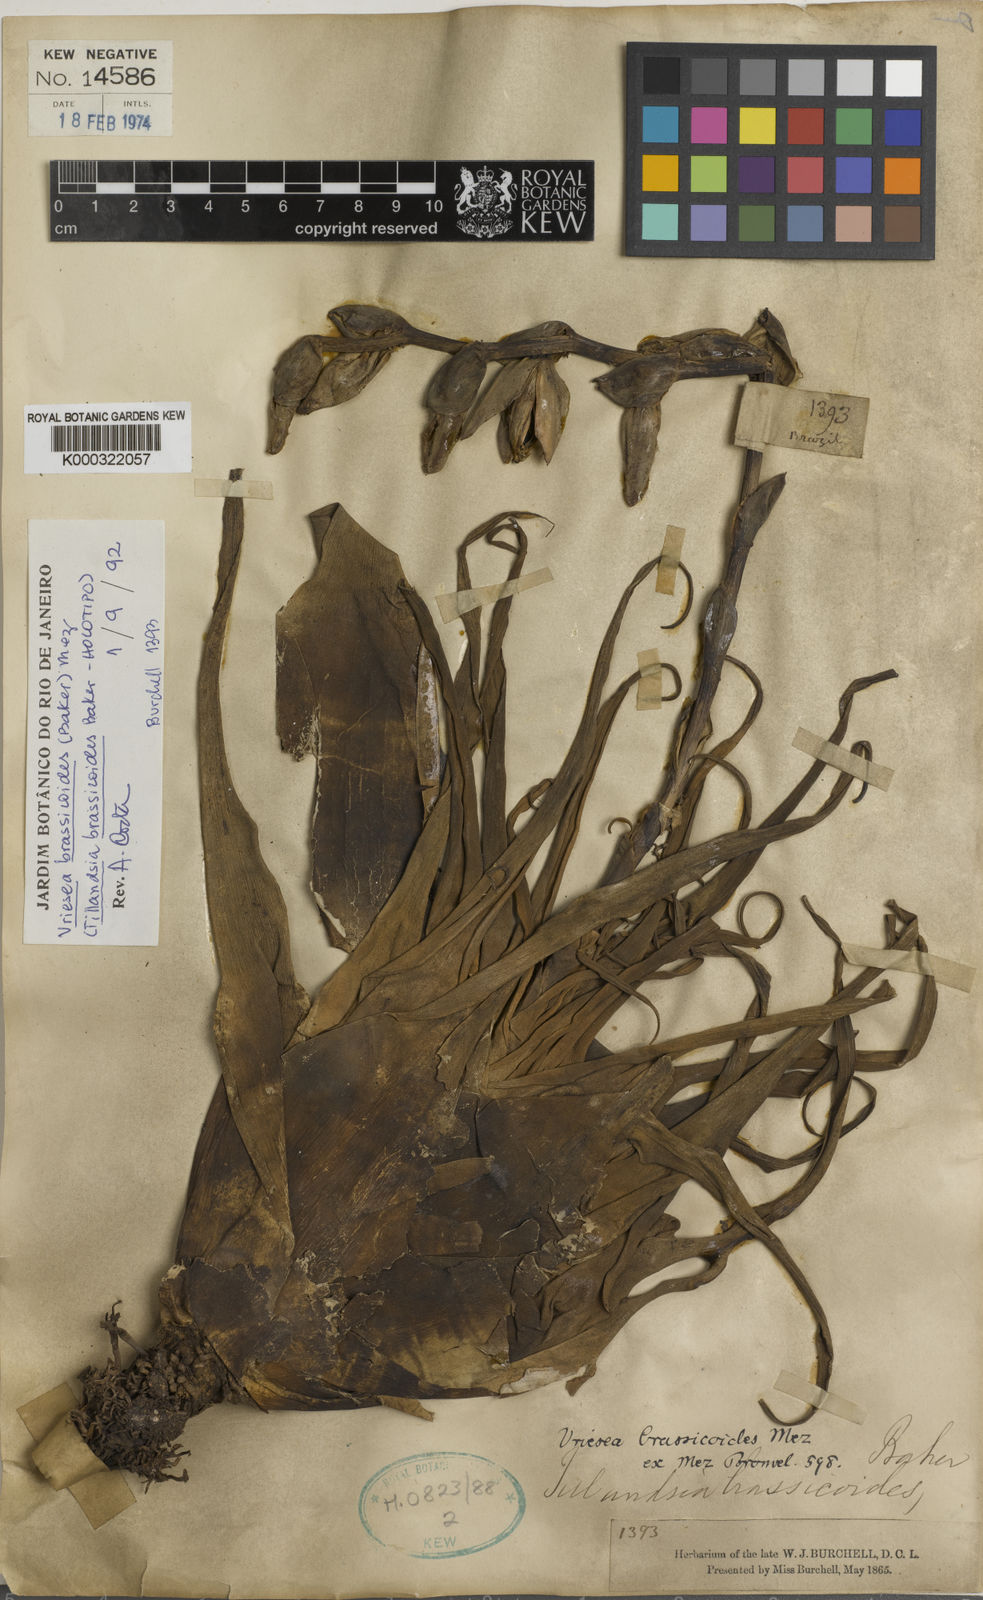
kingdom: Plantae
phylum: Tracheophyta
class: Liliopsida
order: Poales
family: Bromeliaceae
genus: Stigmatodon
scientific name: Stigmatodon brassicoides
